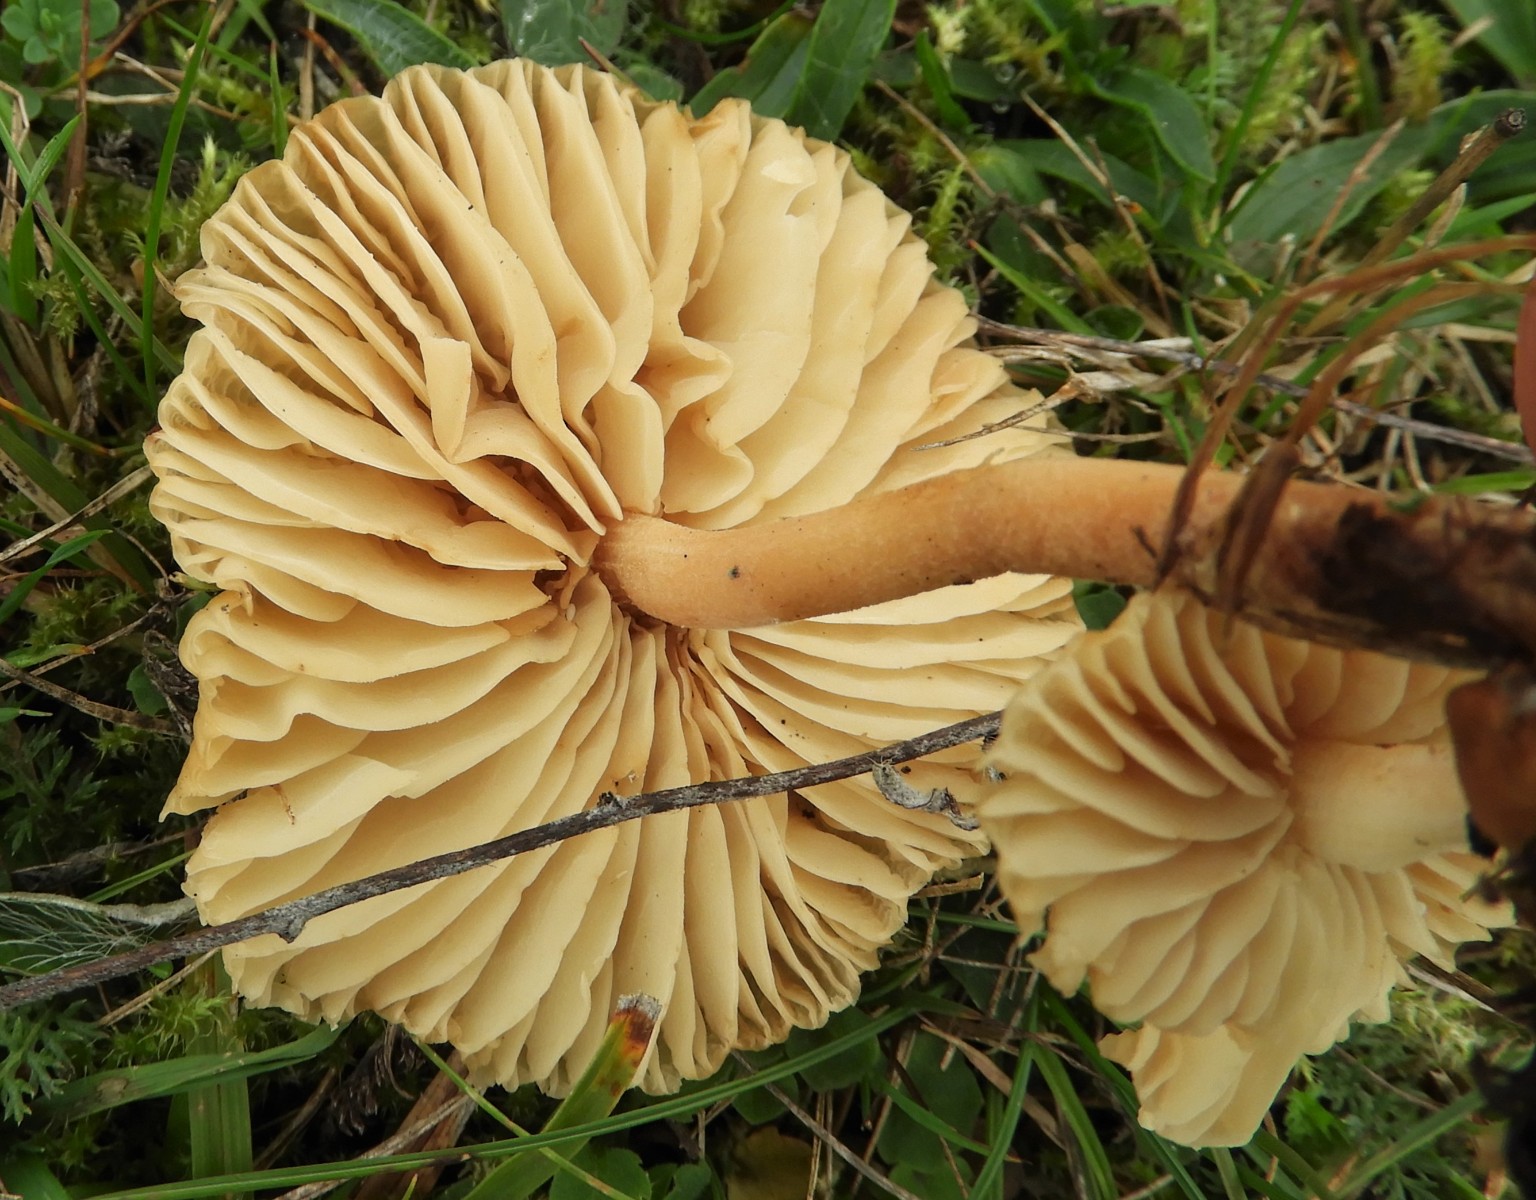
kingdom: Fungi
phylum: Basidiomycota
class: Agaricomycetes
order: Agaricales
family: Marasmiaceae
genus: Marasmius
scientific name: Marasmius oreades
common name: elledans-bruskhat
